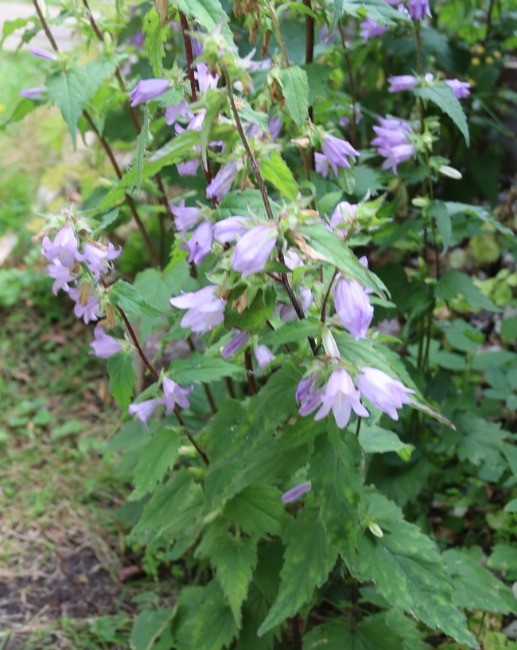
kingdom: Plantae
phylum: Tracheophyta
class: Magnoliopsida
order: Asterales
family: Campanulaceae
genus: Campanula
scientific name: Campanula trachelium
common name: Nælde-klokke
